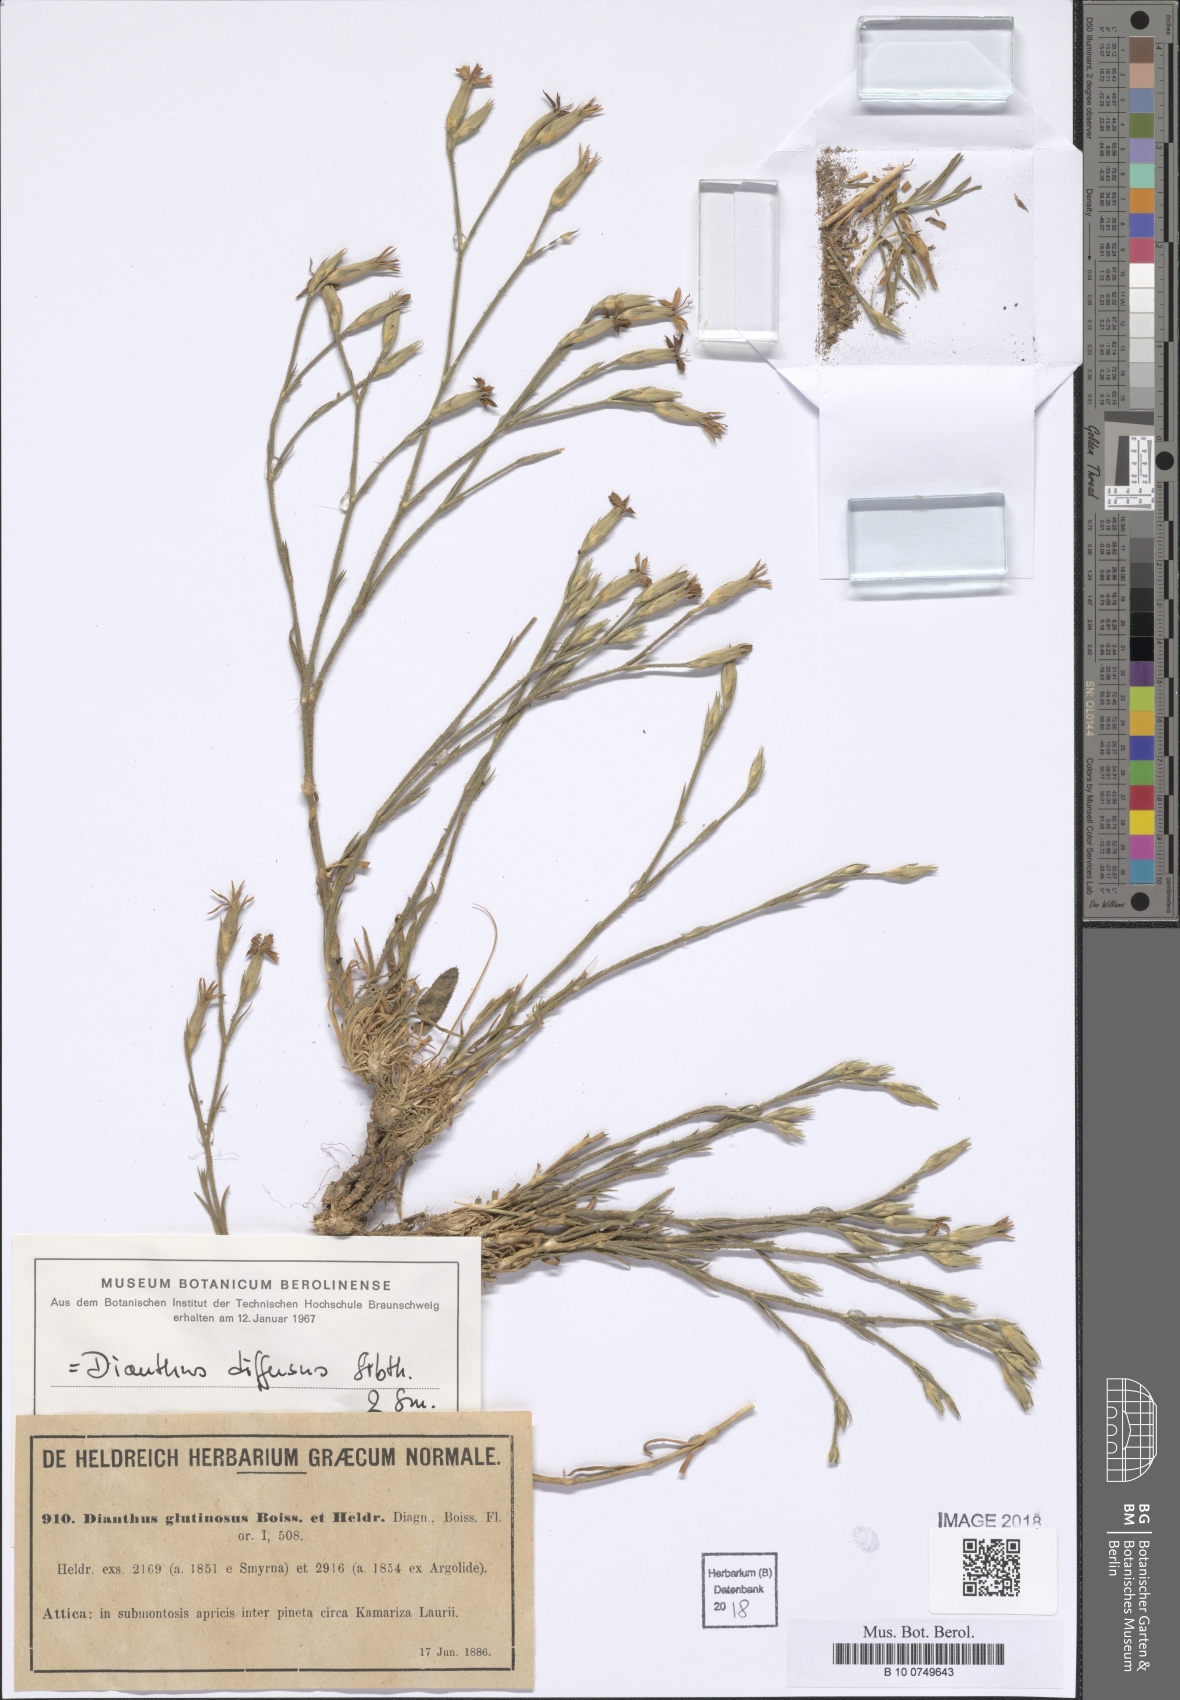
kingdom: Plantae
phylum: Tracheophyta
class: Magnoliopsida
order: Caryophyllales
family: Caryophyllaceae
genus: Dianthus
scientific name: Dianthus diffusus
